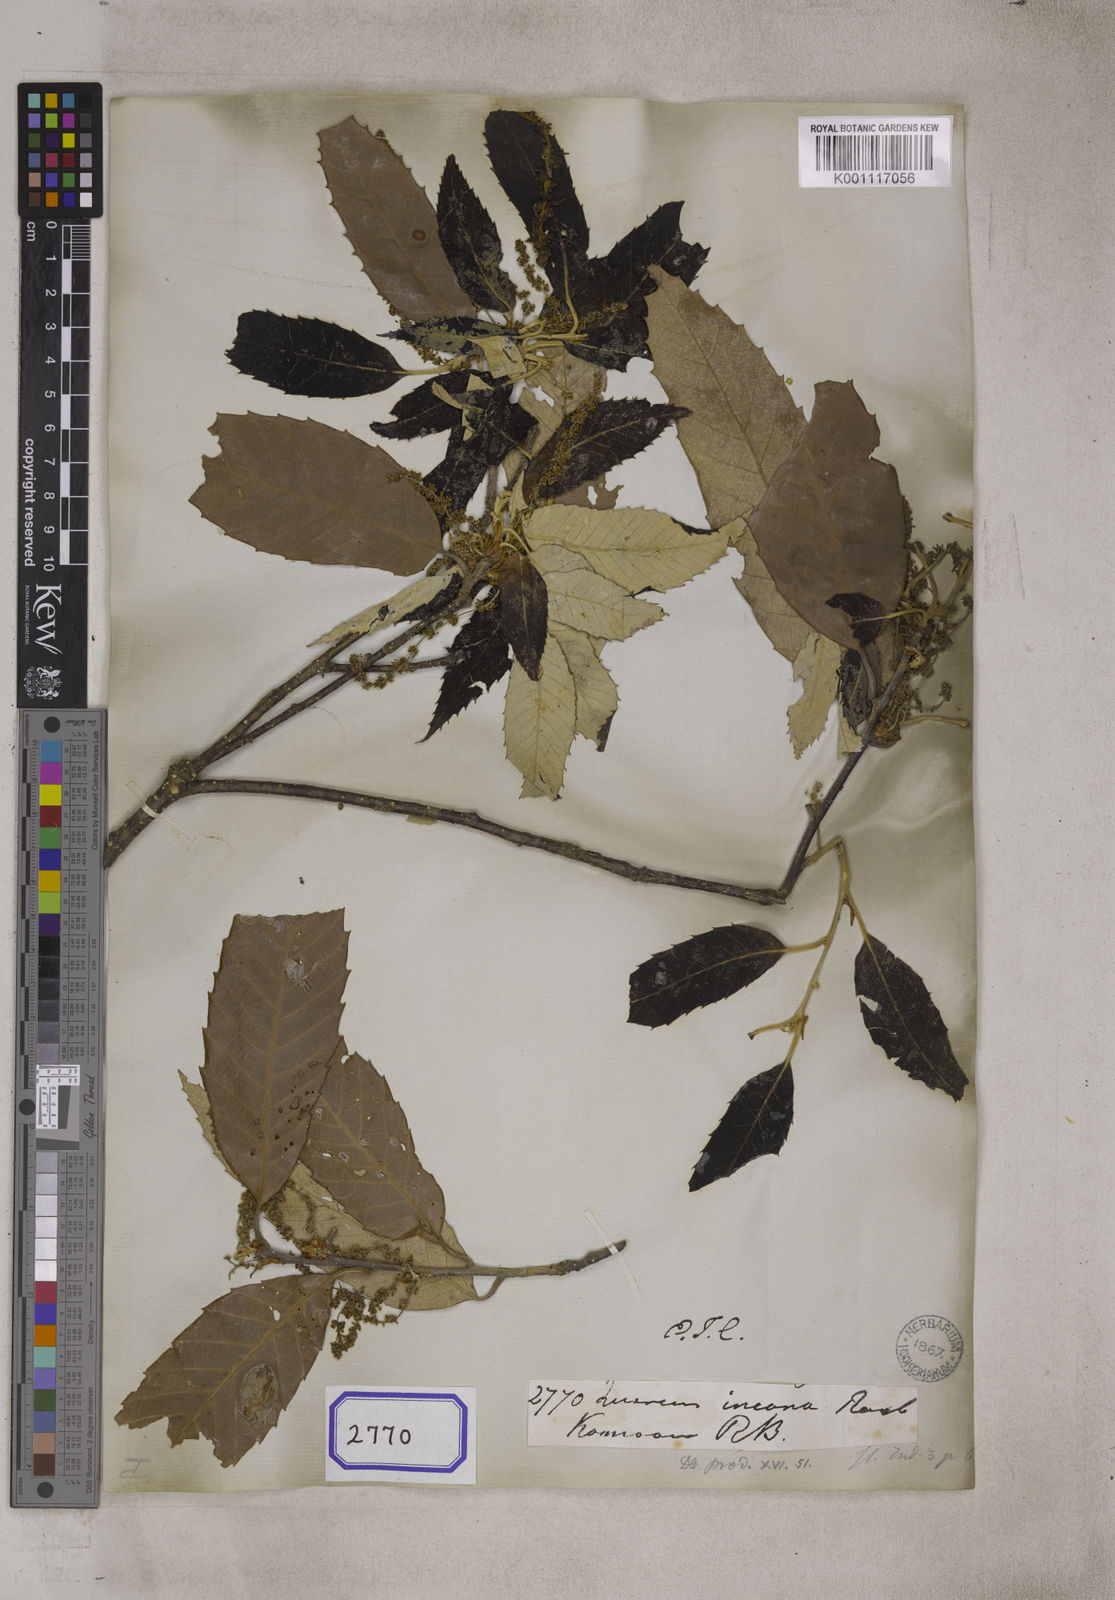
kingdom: Plantae
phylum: Tracheophyta
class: Magnoliopsida
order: Fagales
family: Fagaceae
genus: Quercus
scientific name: Quercus leucotrichophora
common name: Banj oak
